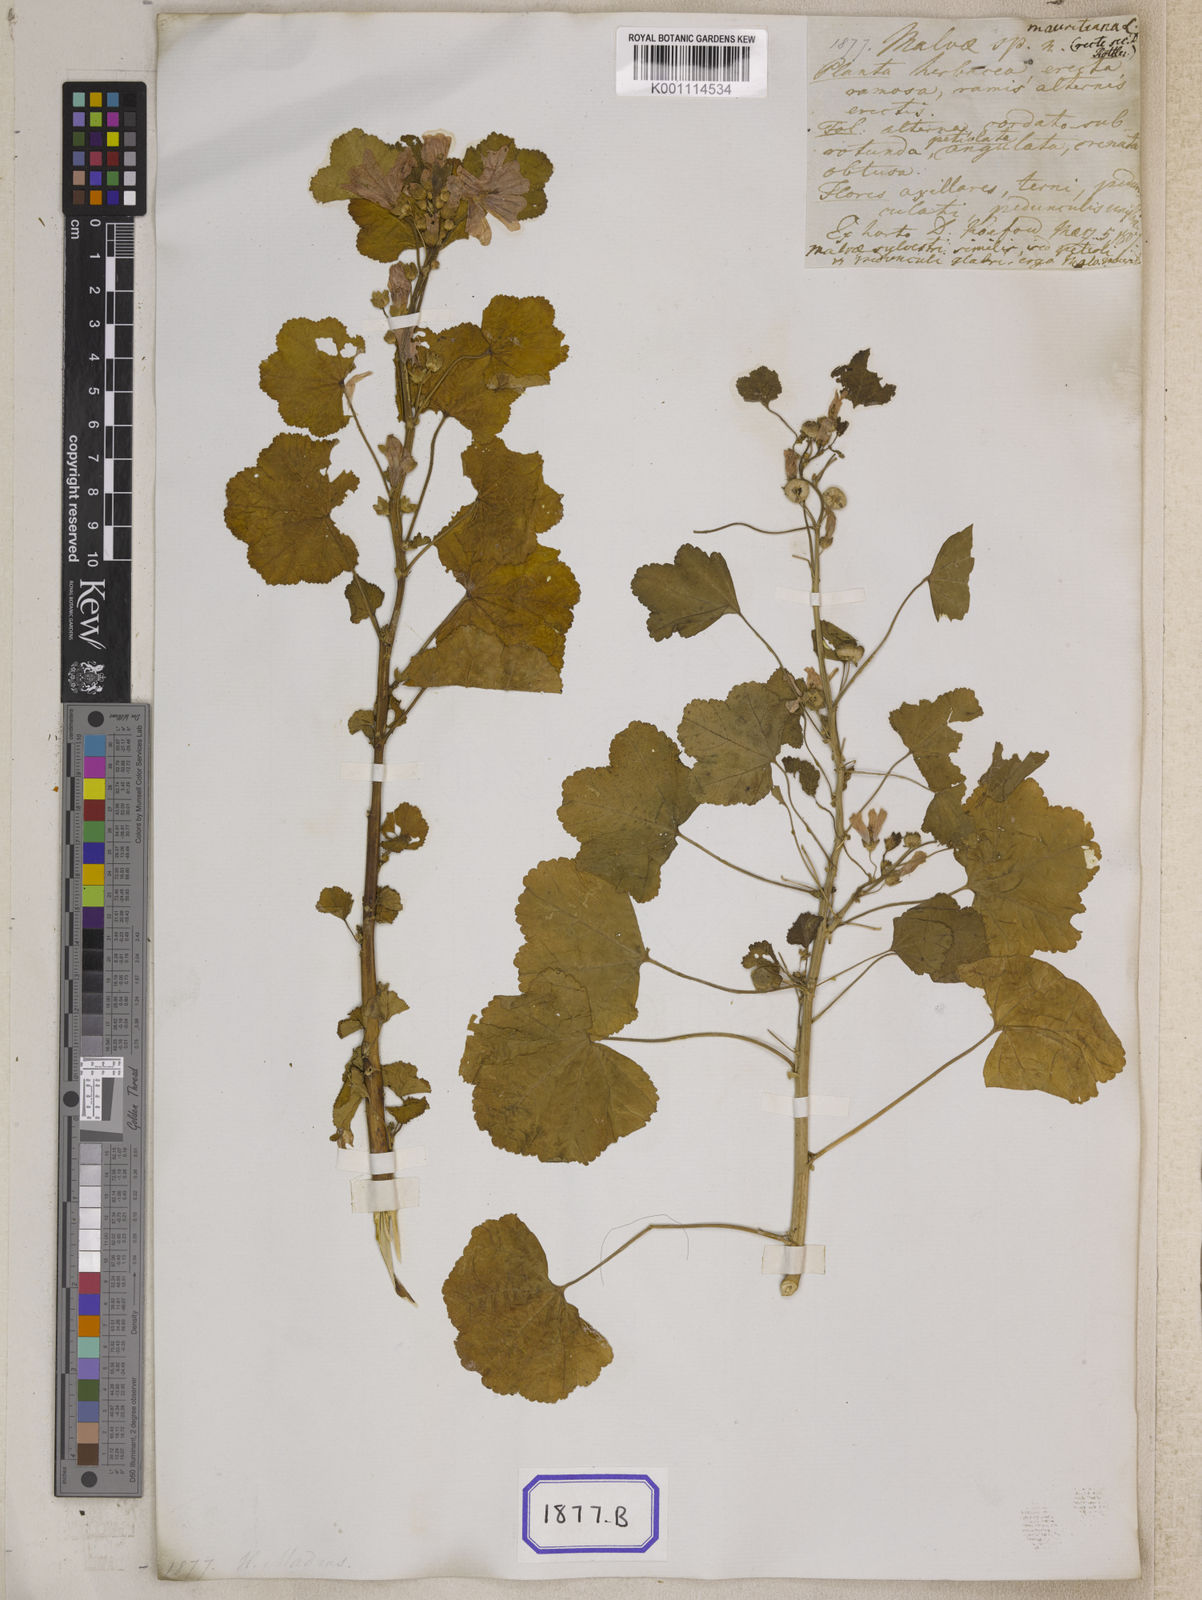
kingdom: Plantae
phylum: Tracheophyta
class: Magnoliopsida
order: Malvales
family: Malvaceae
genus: Malva
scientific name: Malva sylvestris
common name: Common mallow
